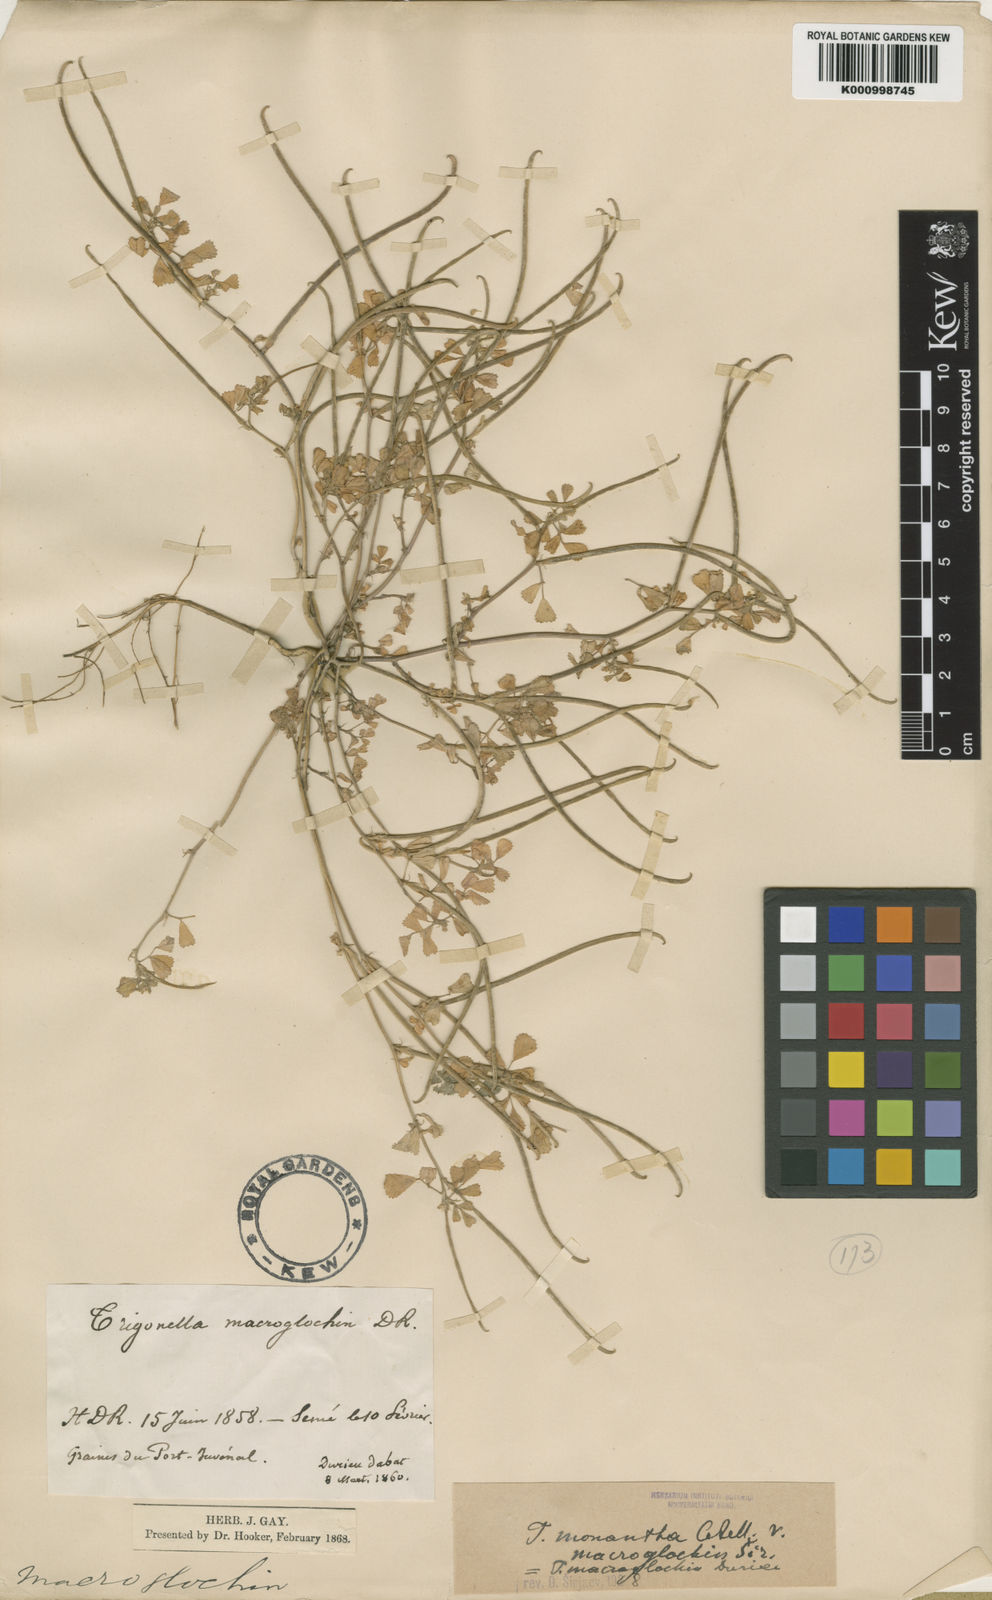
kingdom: Plantae
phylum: Tracheophyta
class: Magnoliopsida
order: Fabales
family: Fabaceae
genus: Medicago
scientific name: Medicago laciniata
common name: Tattered medick
